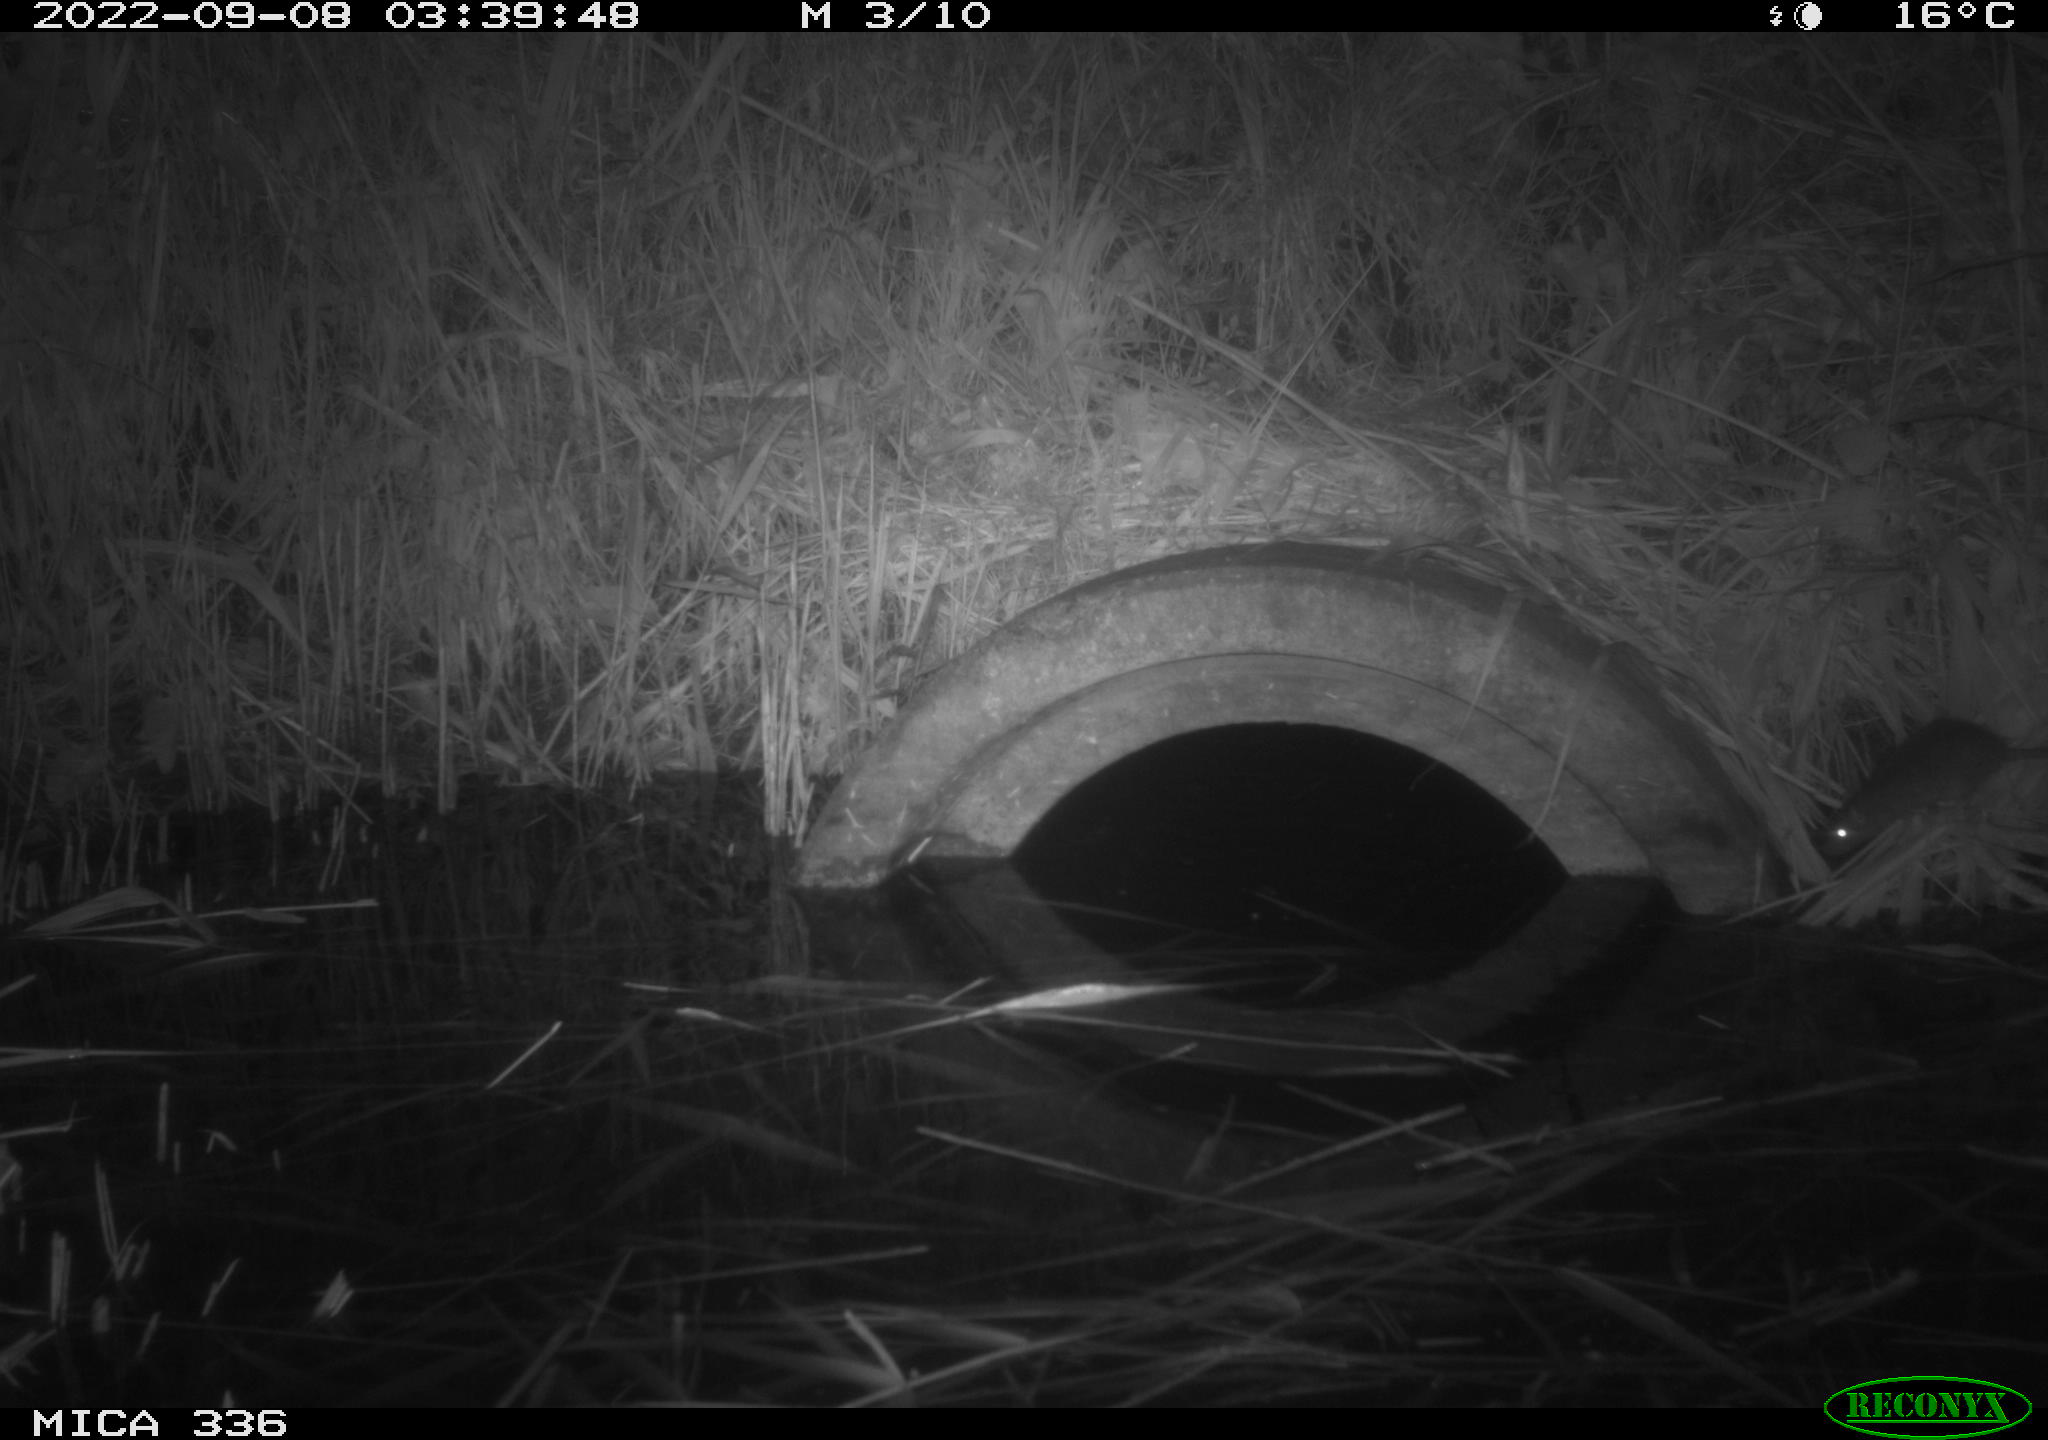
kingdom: Animalia
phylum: Chordata
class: Mammalia
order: Rodentia
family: Muridae
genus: Rattus
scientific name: Rattus norvegicus
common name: Brown rat
